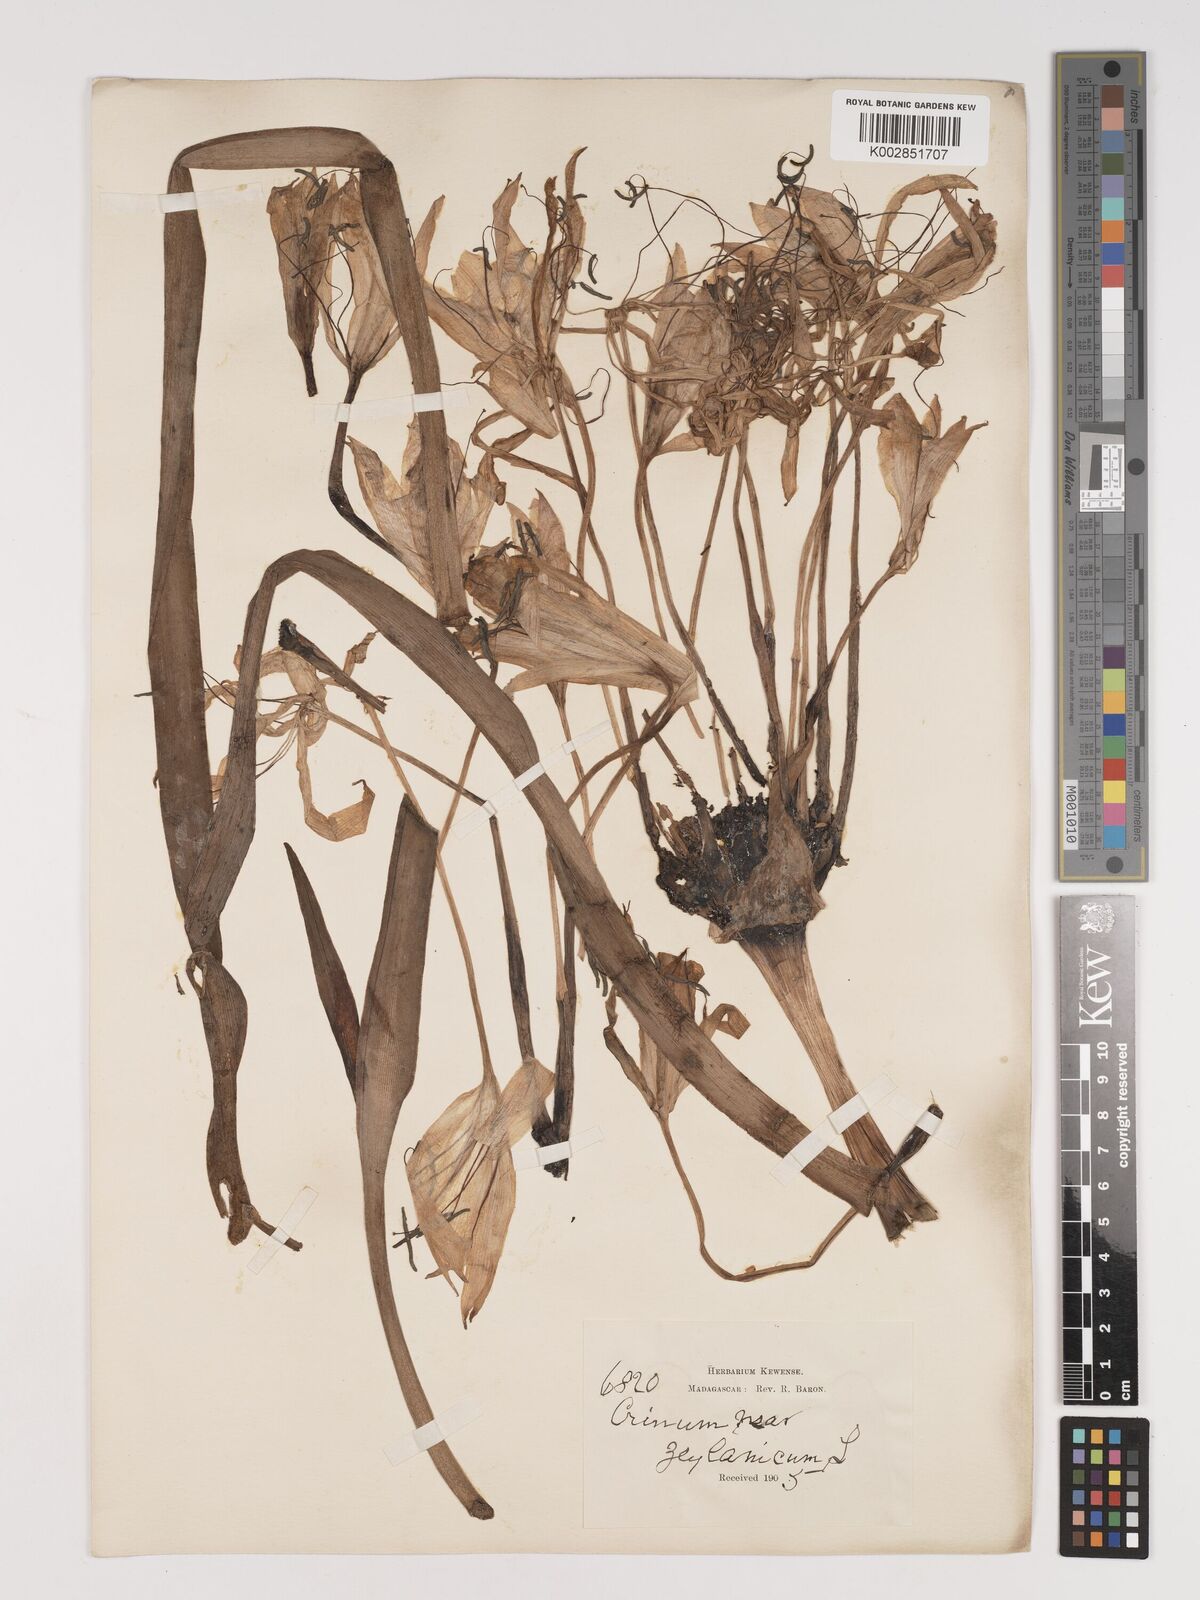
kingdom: Plantae
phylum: Tracheophyta
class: Liliopsida
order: Asparagales
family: Amaryllidaceae
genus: Crinum
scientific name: Crinum
